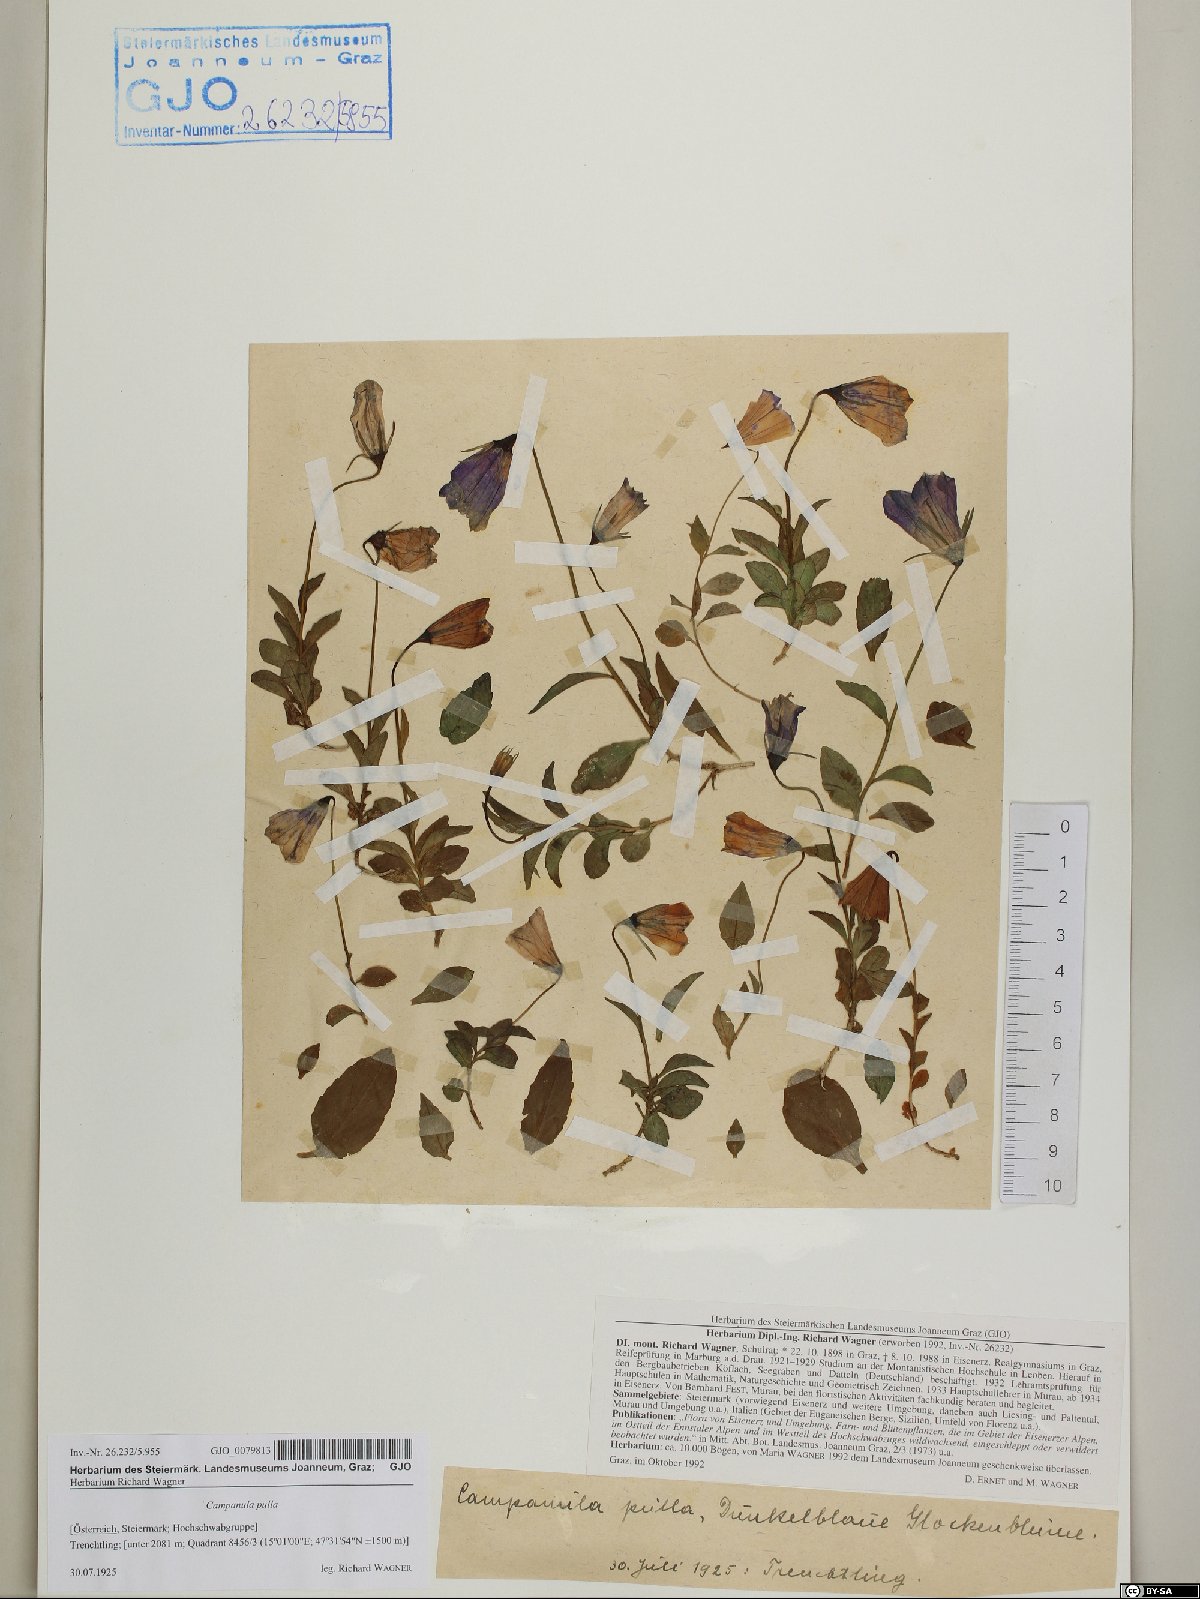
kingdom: Plantae
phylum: Tracheophyta
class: Magnoliopsida
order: Asterales
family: Campanulaceae
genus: Campanula
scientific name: Campanula pulla
